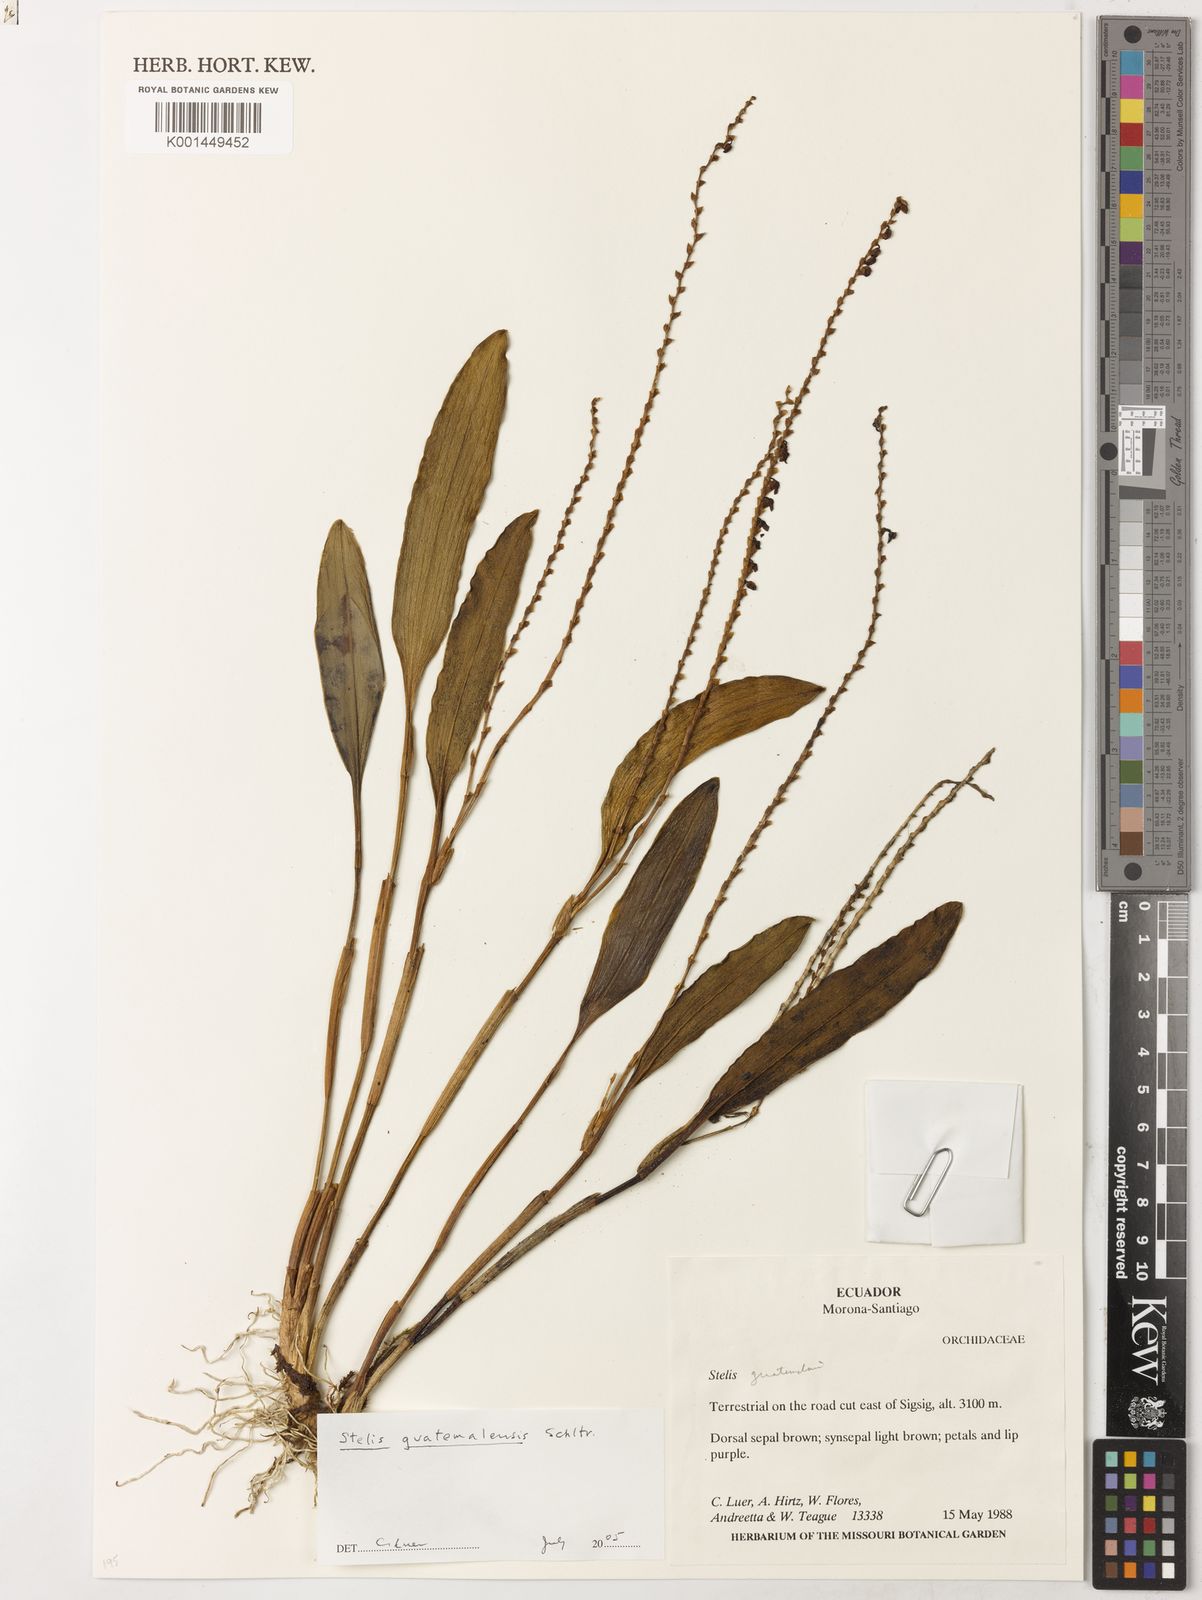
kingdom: Plantae
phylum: Tracheophyta
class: Liliopsida
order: Asparagales
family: Orchidaceae
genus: Stelis
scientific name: Stelis pardipes
